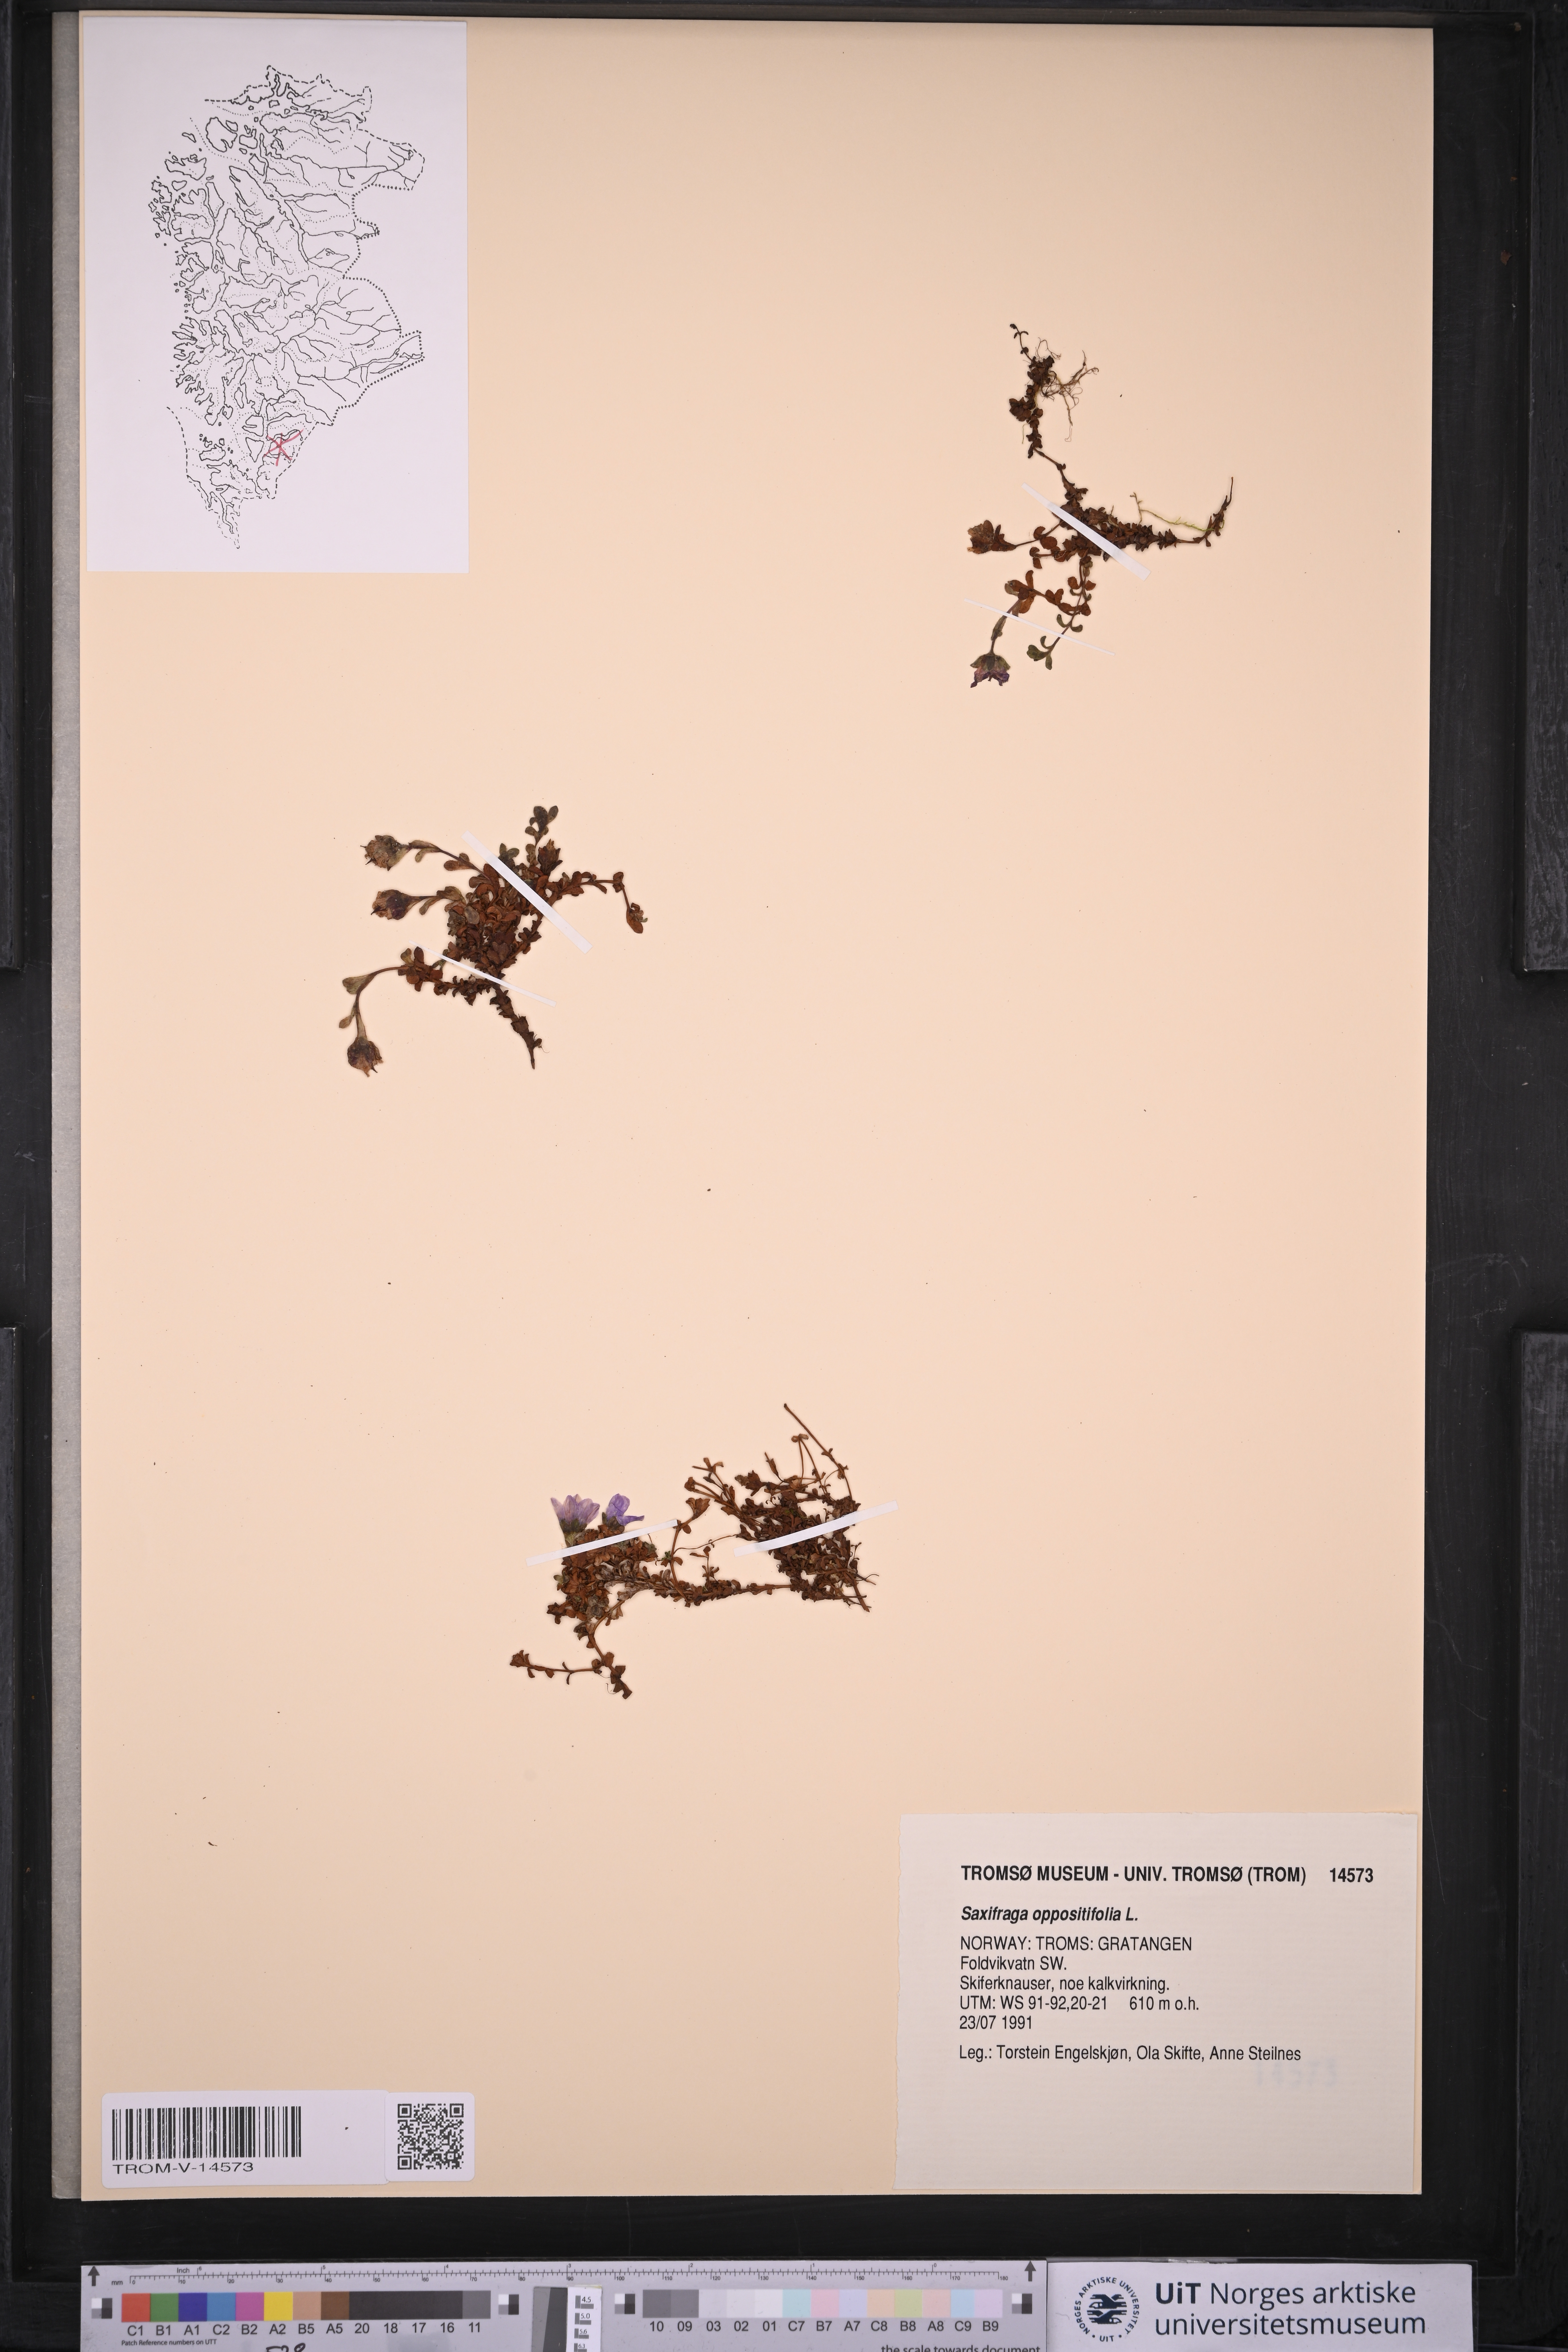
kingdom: Plantae
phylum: Tracheophyta
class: Magnoliopsida
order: Saxifragales
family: Saxifragaceae
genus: Saxifraga
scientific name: Saxifraga oppositifolia
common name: Purple saxifrage
